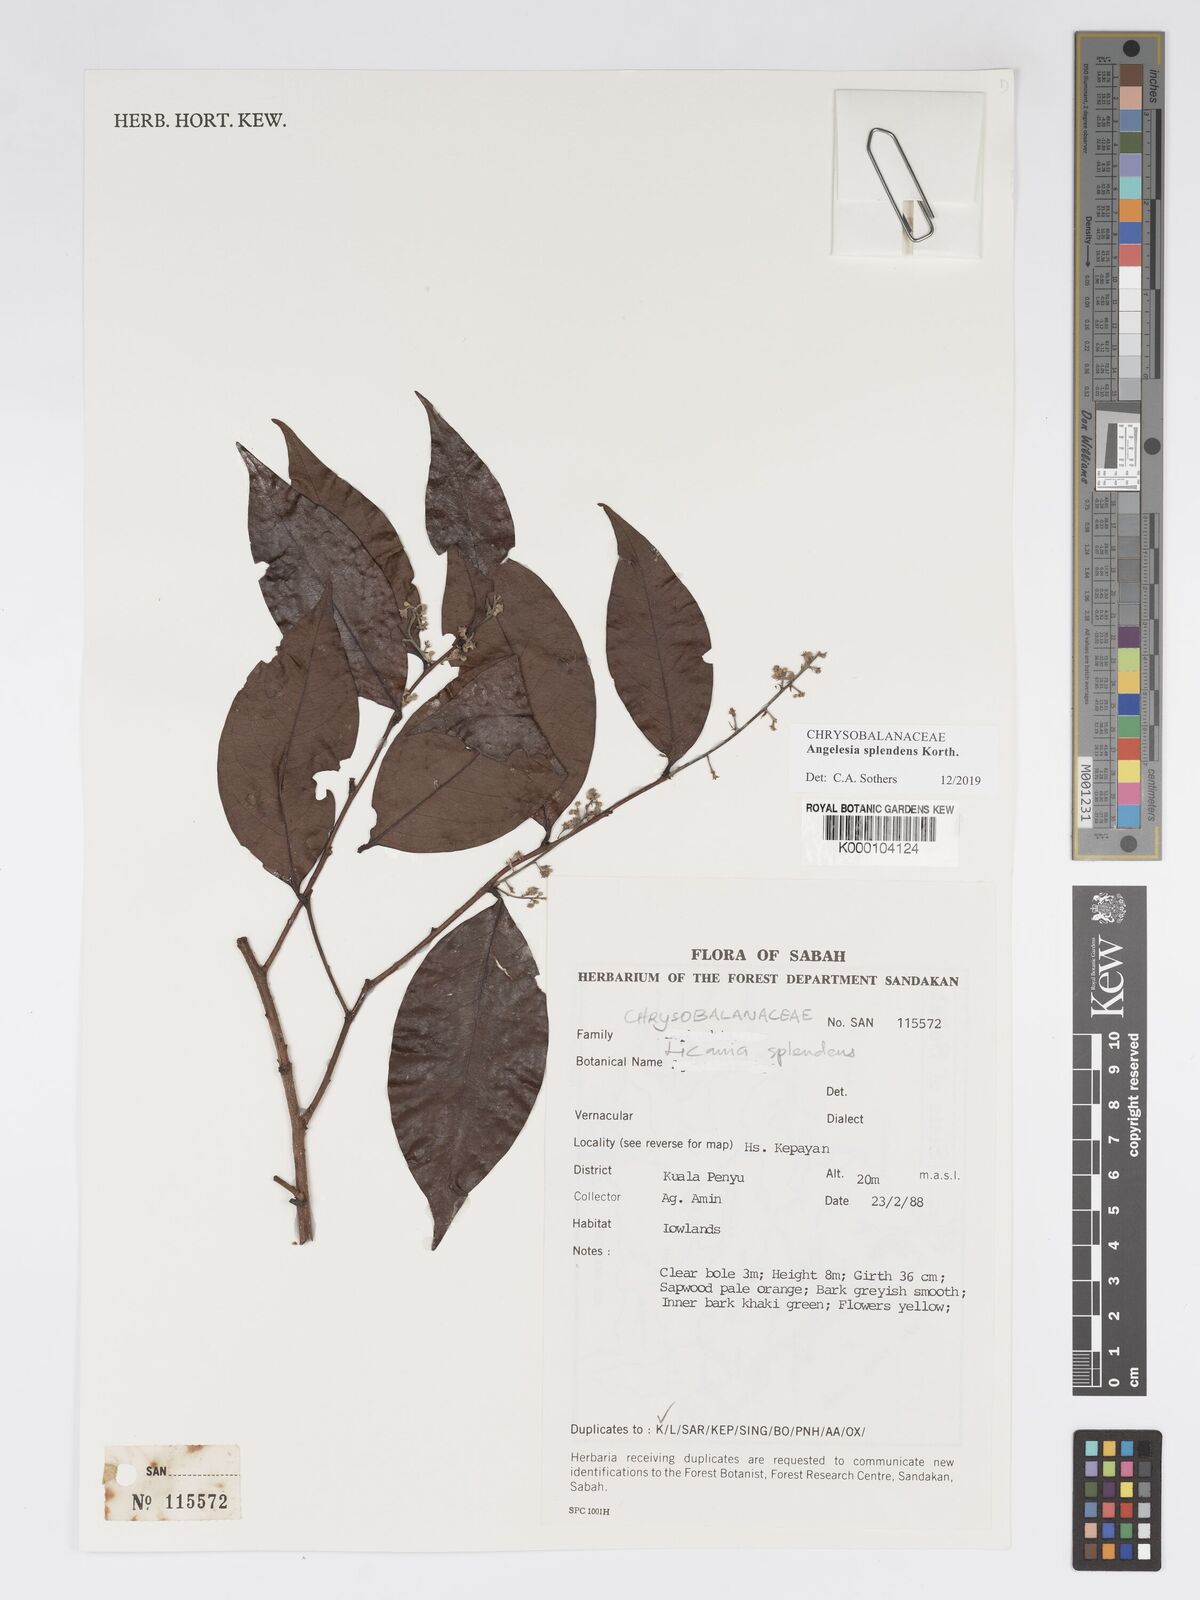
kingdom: Plantae
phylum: Tracheophyta
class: Magnoliopsida
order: Malpighiales
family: Chrysobalanaceae
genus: Angelesia
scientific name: Angelesia splendens
